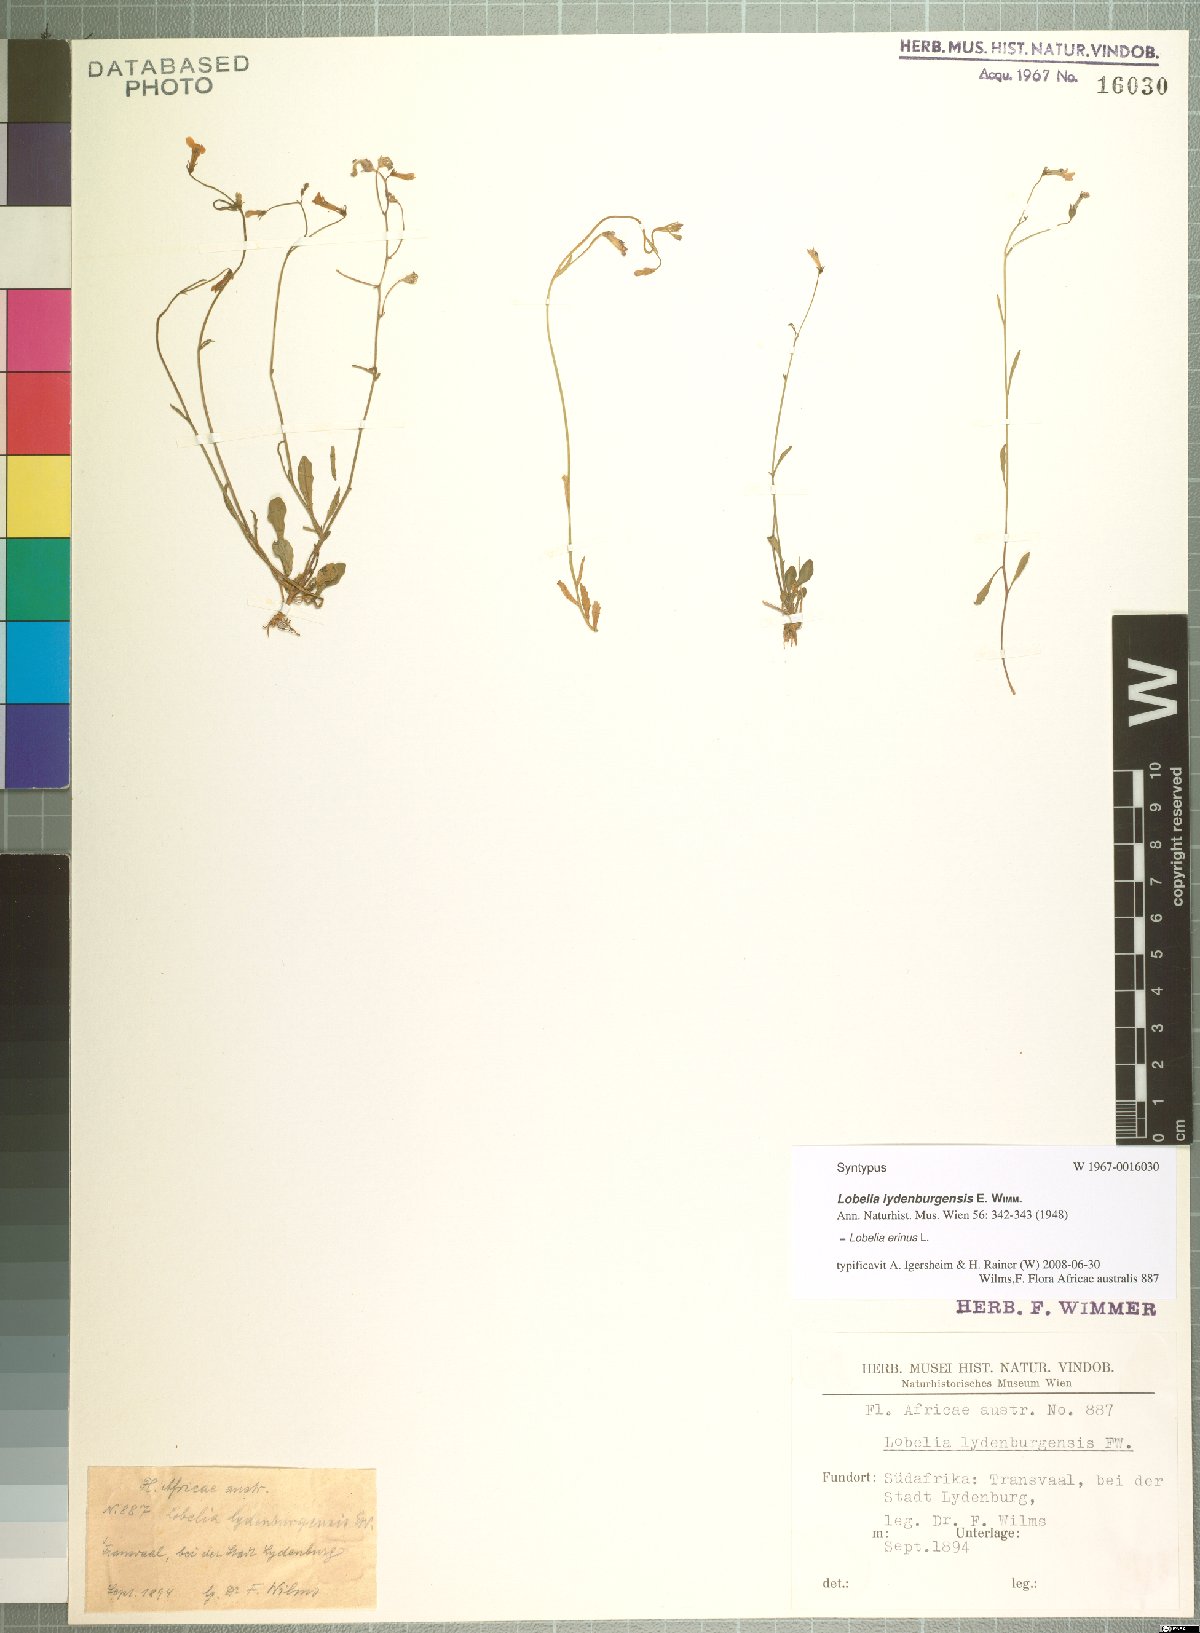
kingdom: Plantae
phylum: Tracheophyta
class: Magnoliopsida
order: Asterales
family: Campanulaceae
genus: Lobelia
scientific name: Lobelia erinus
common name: Edging lobelia
